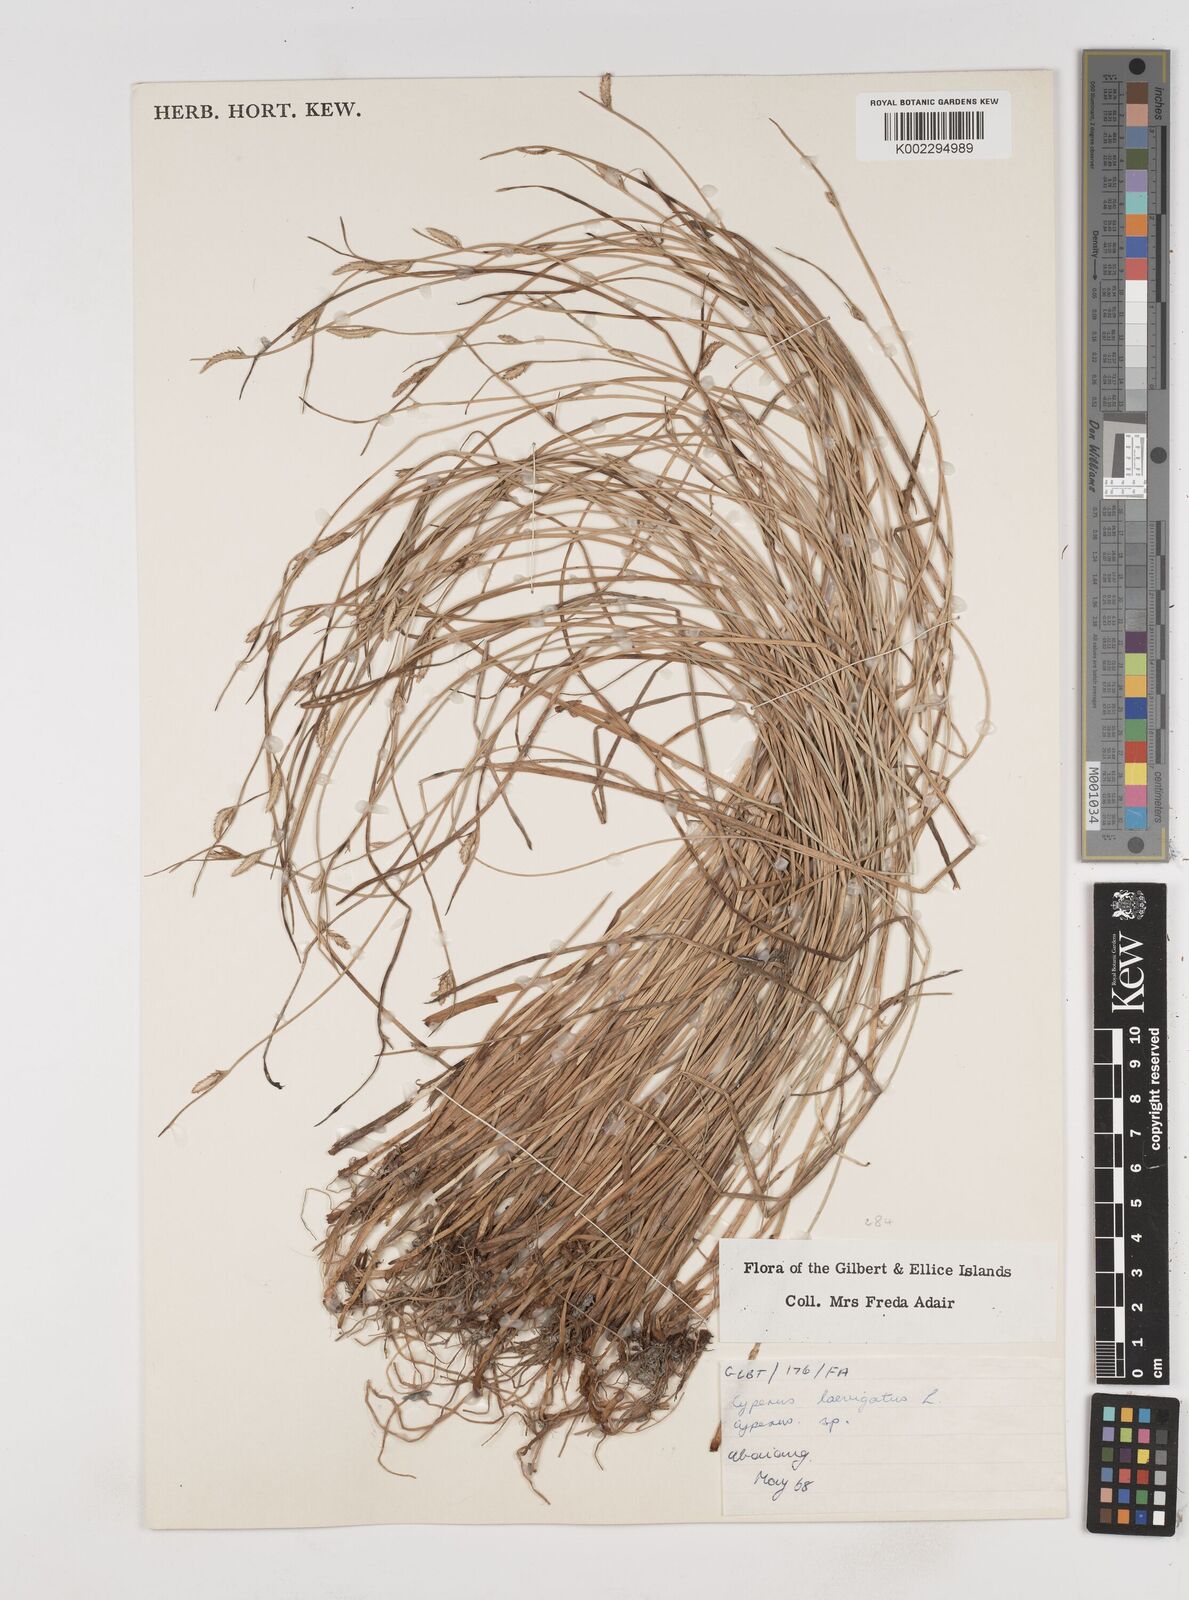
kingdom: Plantae
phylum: Tracheophyta
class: Liliopsida
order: Poales
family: Cyperaceae
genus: Cyperus
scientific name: Cyperus laevigatus
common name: Smooth flat sedge
